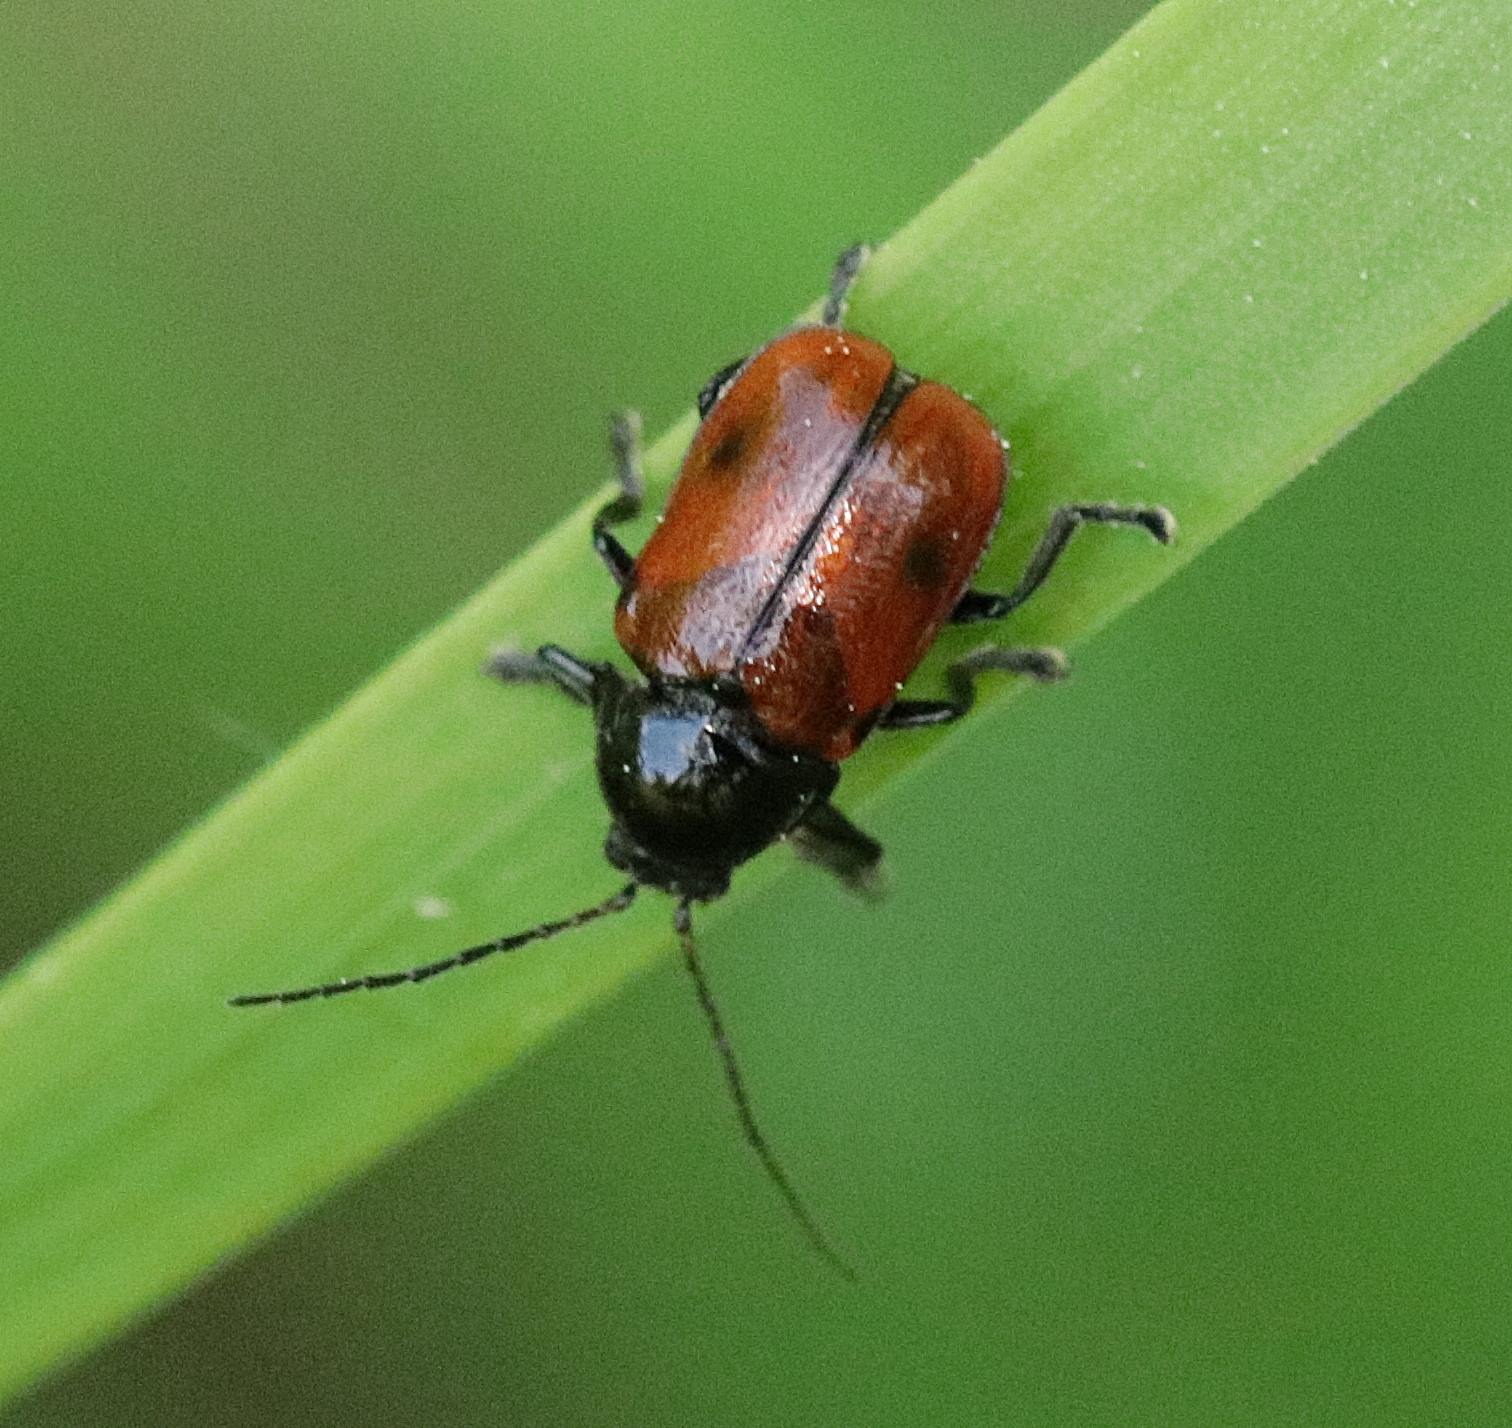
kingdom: Animalia
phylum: Arthropoda
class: Insecta
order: Coleoptera
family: Chrysomelidae
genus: Cryptocephalus
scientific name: Cryptocephalus coryli
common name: Hasselfaldbille
